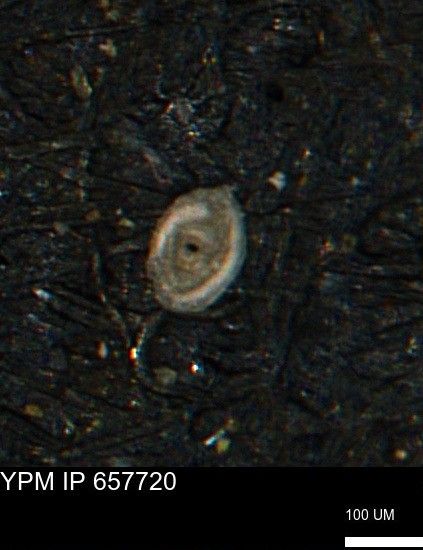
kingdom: Chromista
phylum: Foraminifera
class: Globothalamea
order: Lituolida
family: Rzehakinidae
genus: Spirolocammina
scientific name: Spirolocammina
